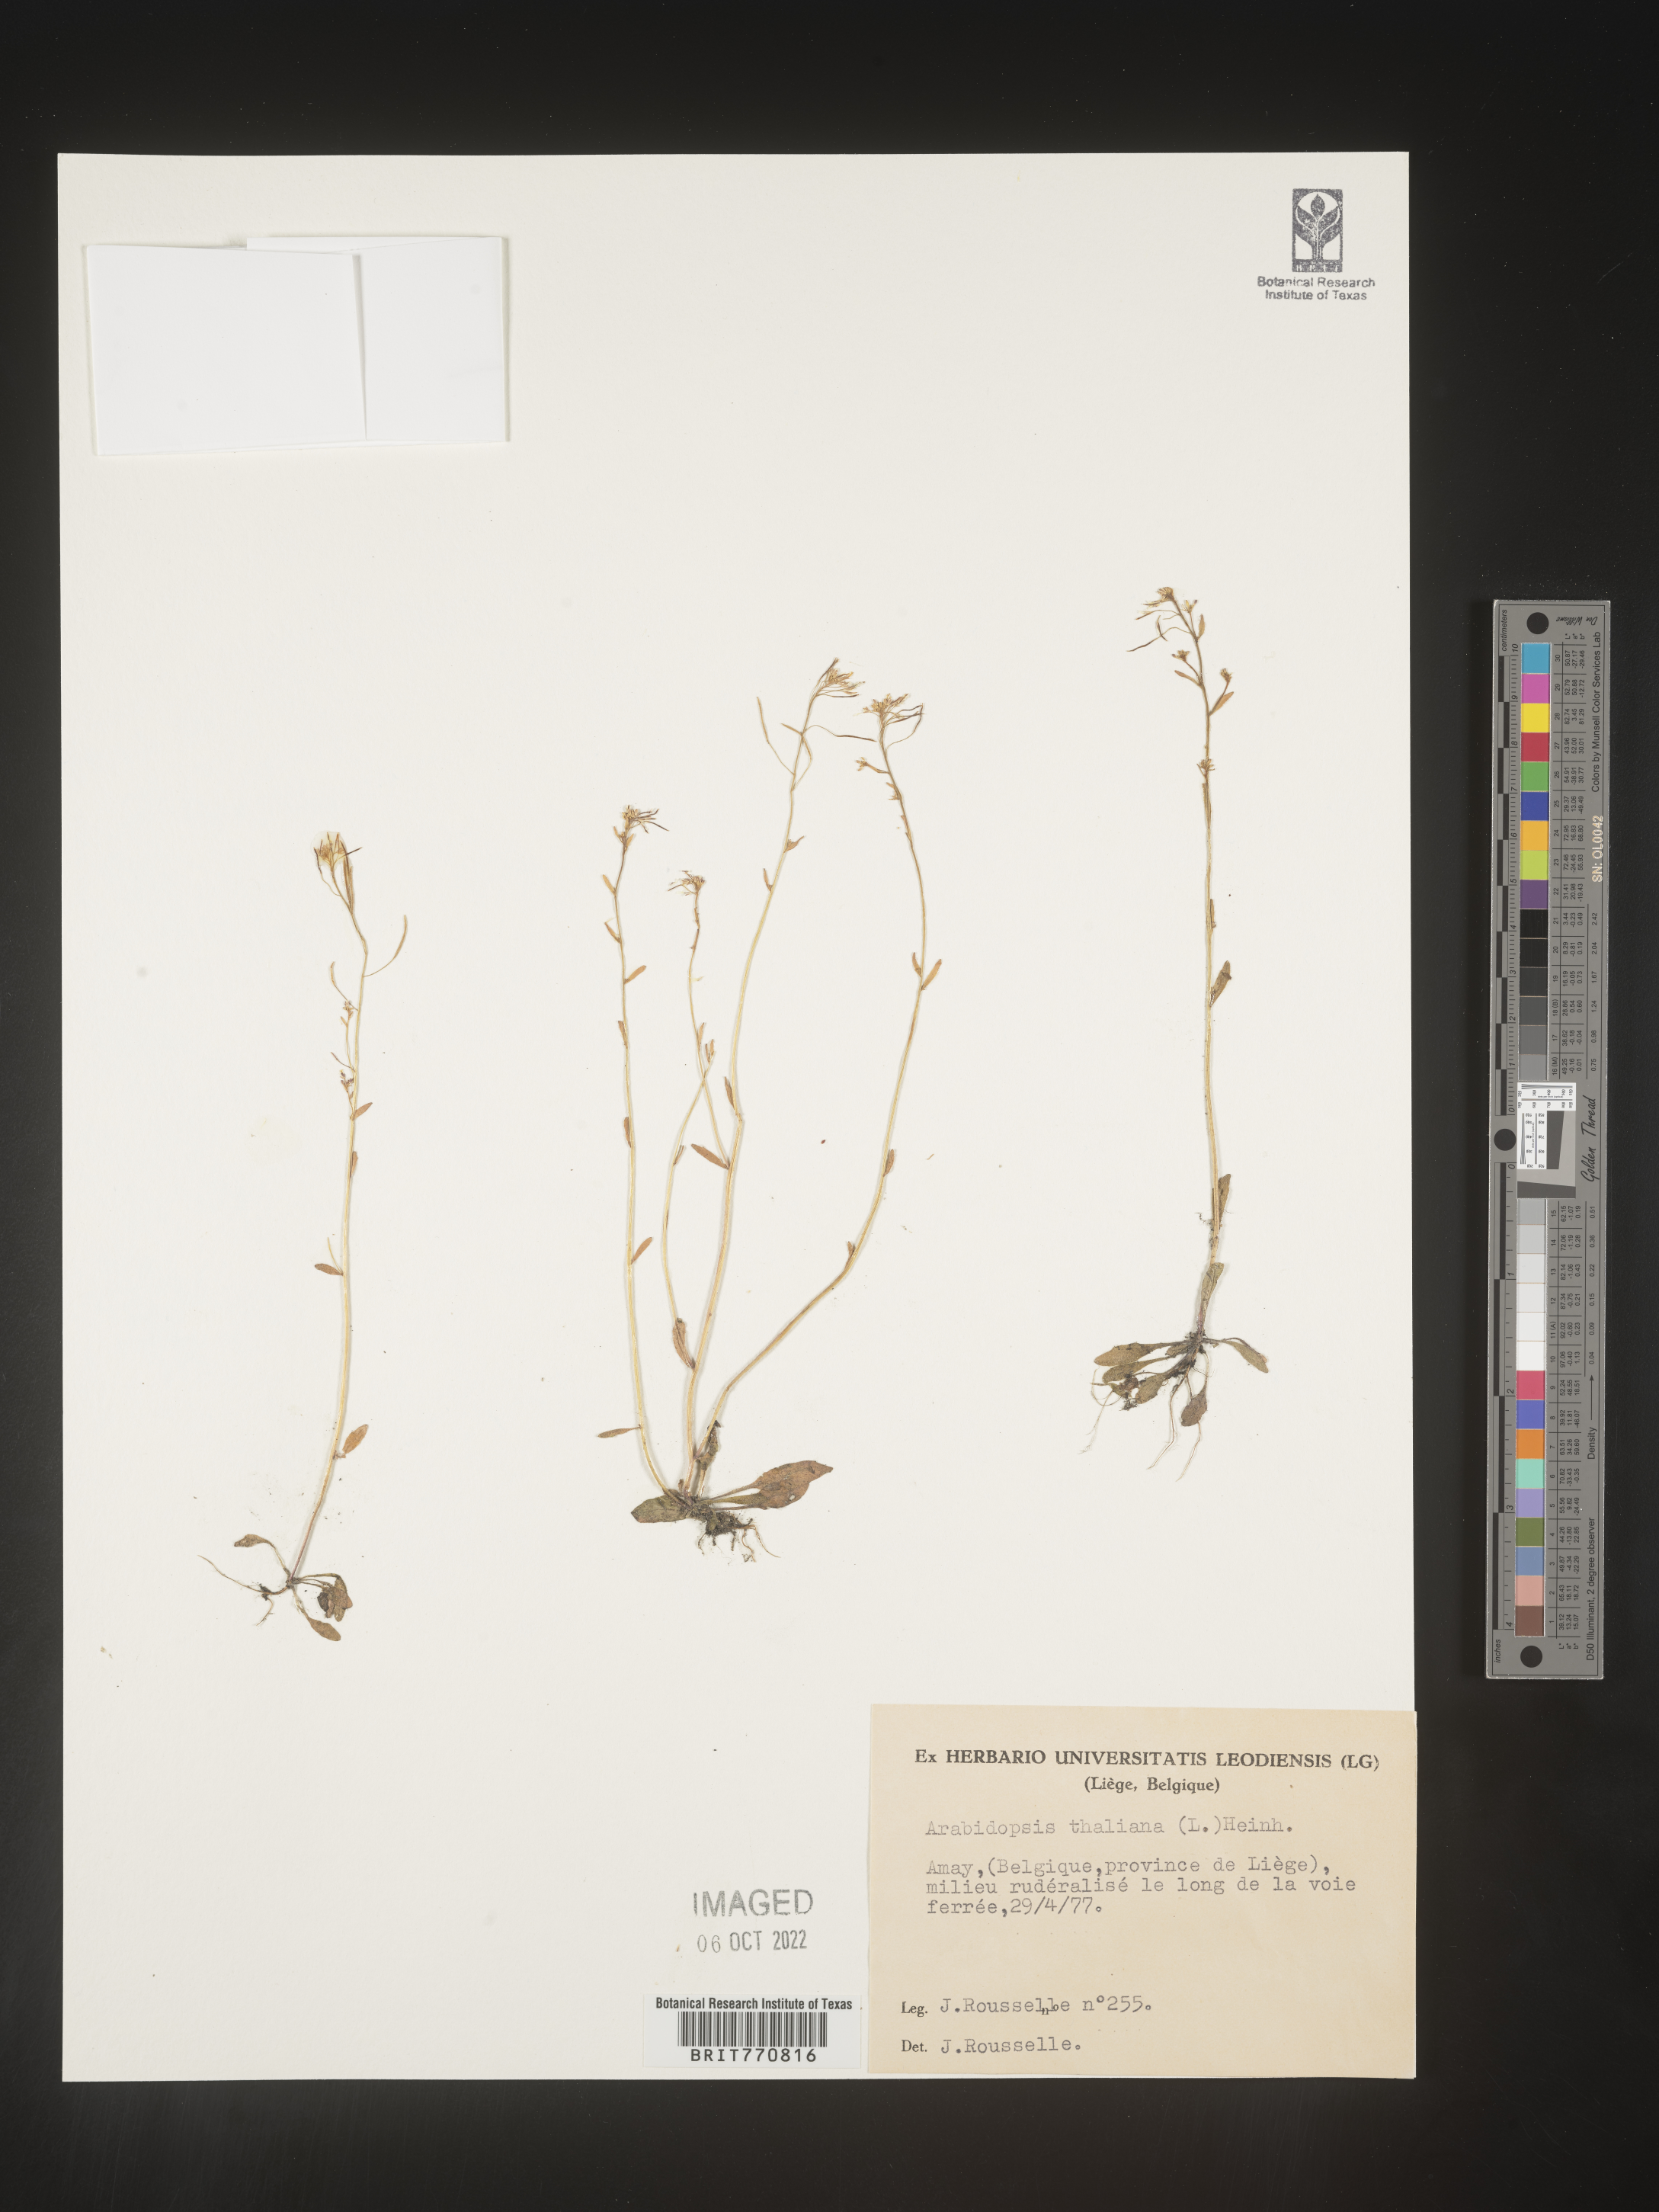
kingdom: Plantae
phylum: Tracheophyta
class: Magnoliopsida
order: Brassicales
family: Brassicaceae
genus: Arabidopsis
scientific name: Arabidopsis
